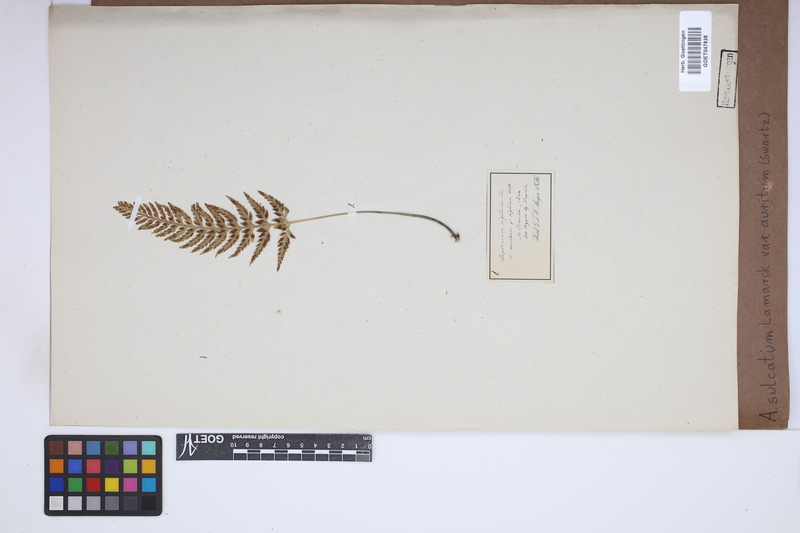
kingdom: Plantae
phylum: Tracheophyta
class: Polypodiopsida
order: Polypodiales
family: Aspleniaceae
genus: Asplenium
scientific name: Asplenium auritum
